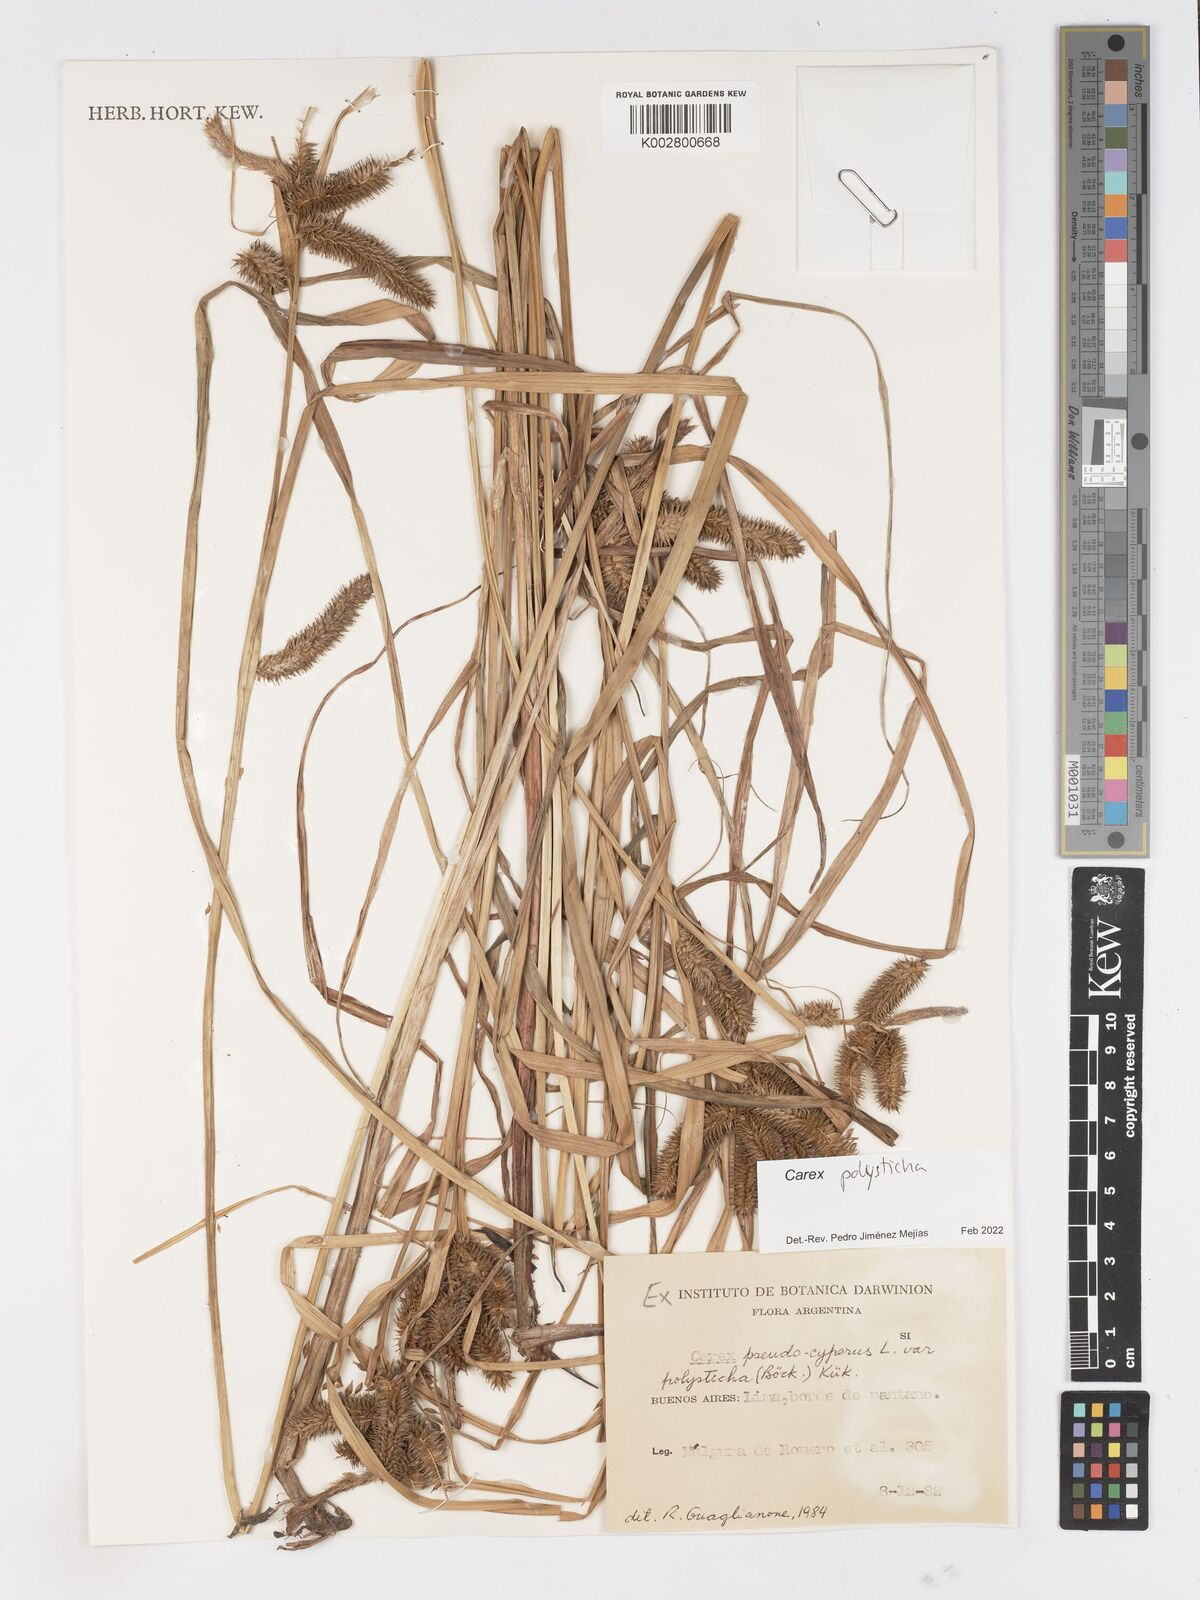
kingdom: Plantae
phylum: Tracheophyta
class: Liliopsida
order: Poales
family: Cyperaceae
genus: Carex
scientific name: Carex polysticha
